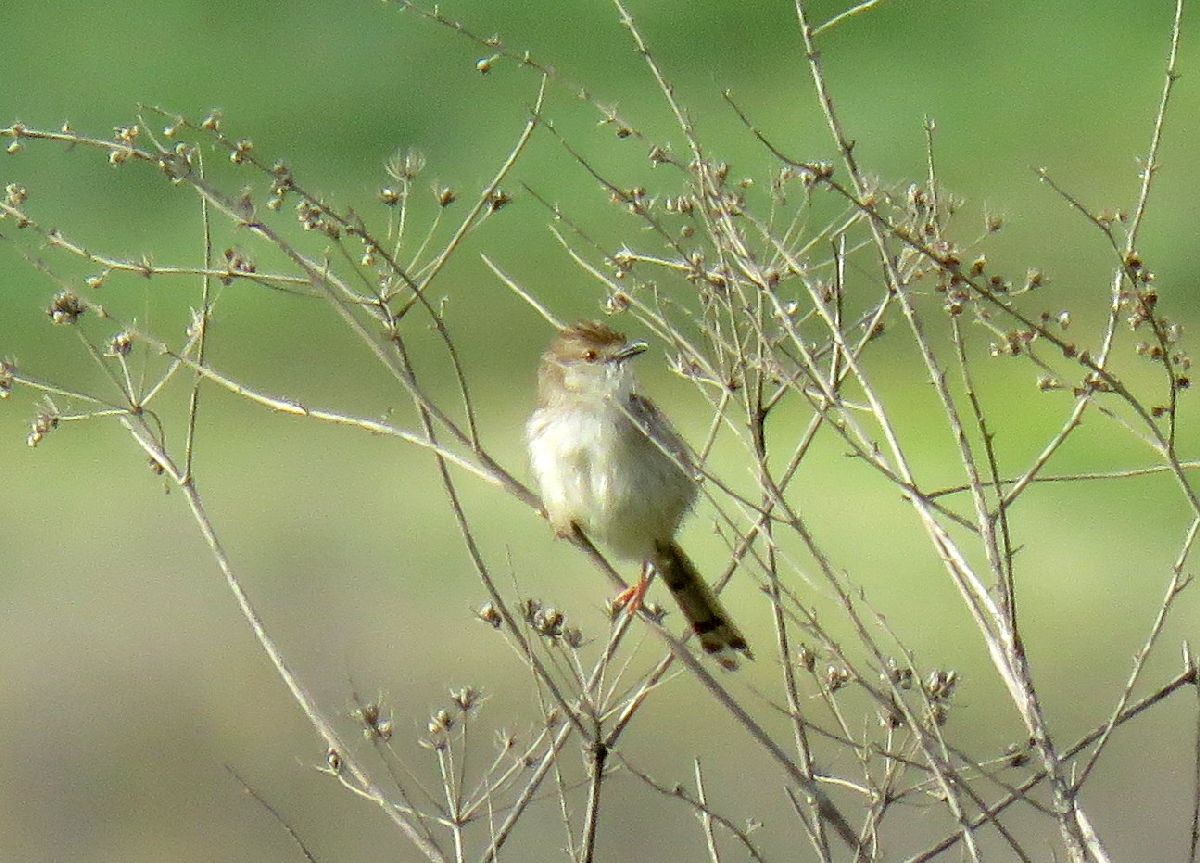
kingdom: Animalia
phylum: Chordata
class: Aves
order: Passeriformes
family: Cisticolidae
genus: Prinia
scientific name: Prinia gracilis
